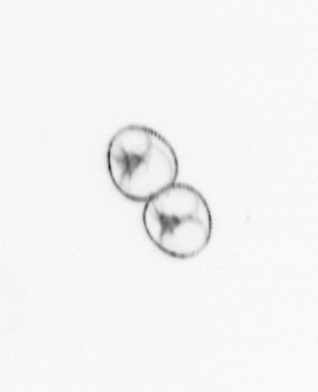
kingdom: Chromista
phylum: Myzozoa
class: Dinophyceae
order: Noctilucales
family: Noctilucaceae
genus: Noctiluca
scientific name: Noctiluca scintillans
